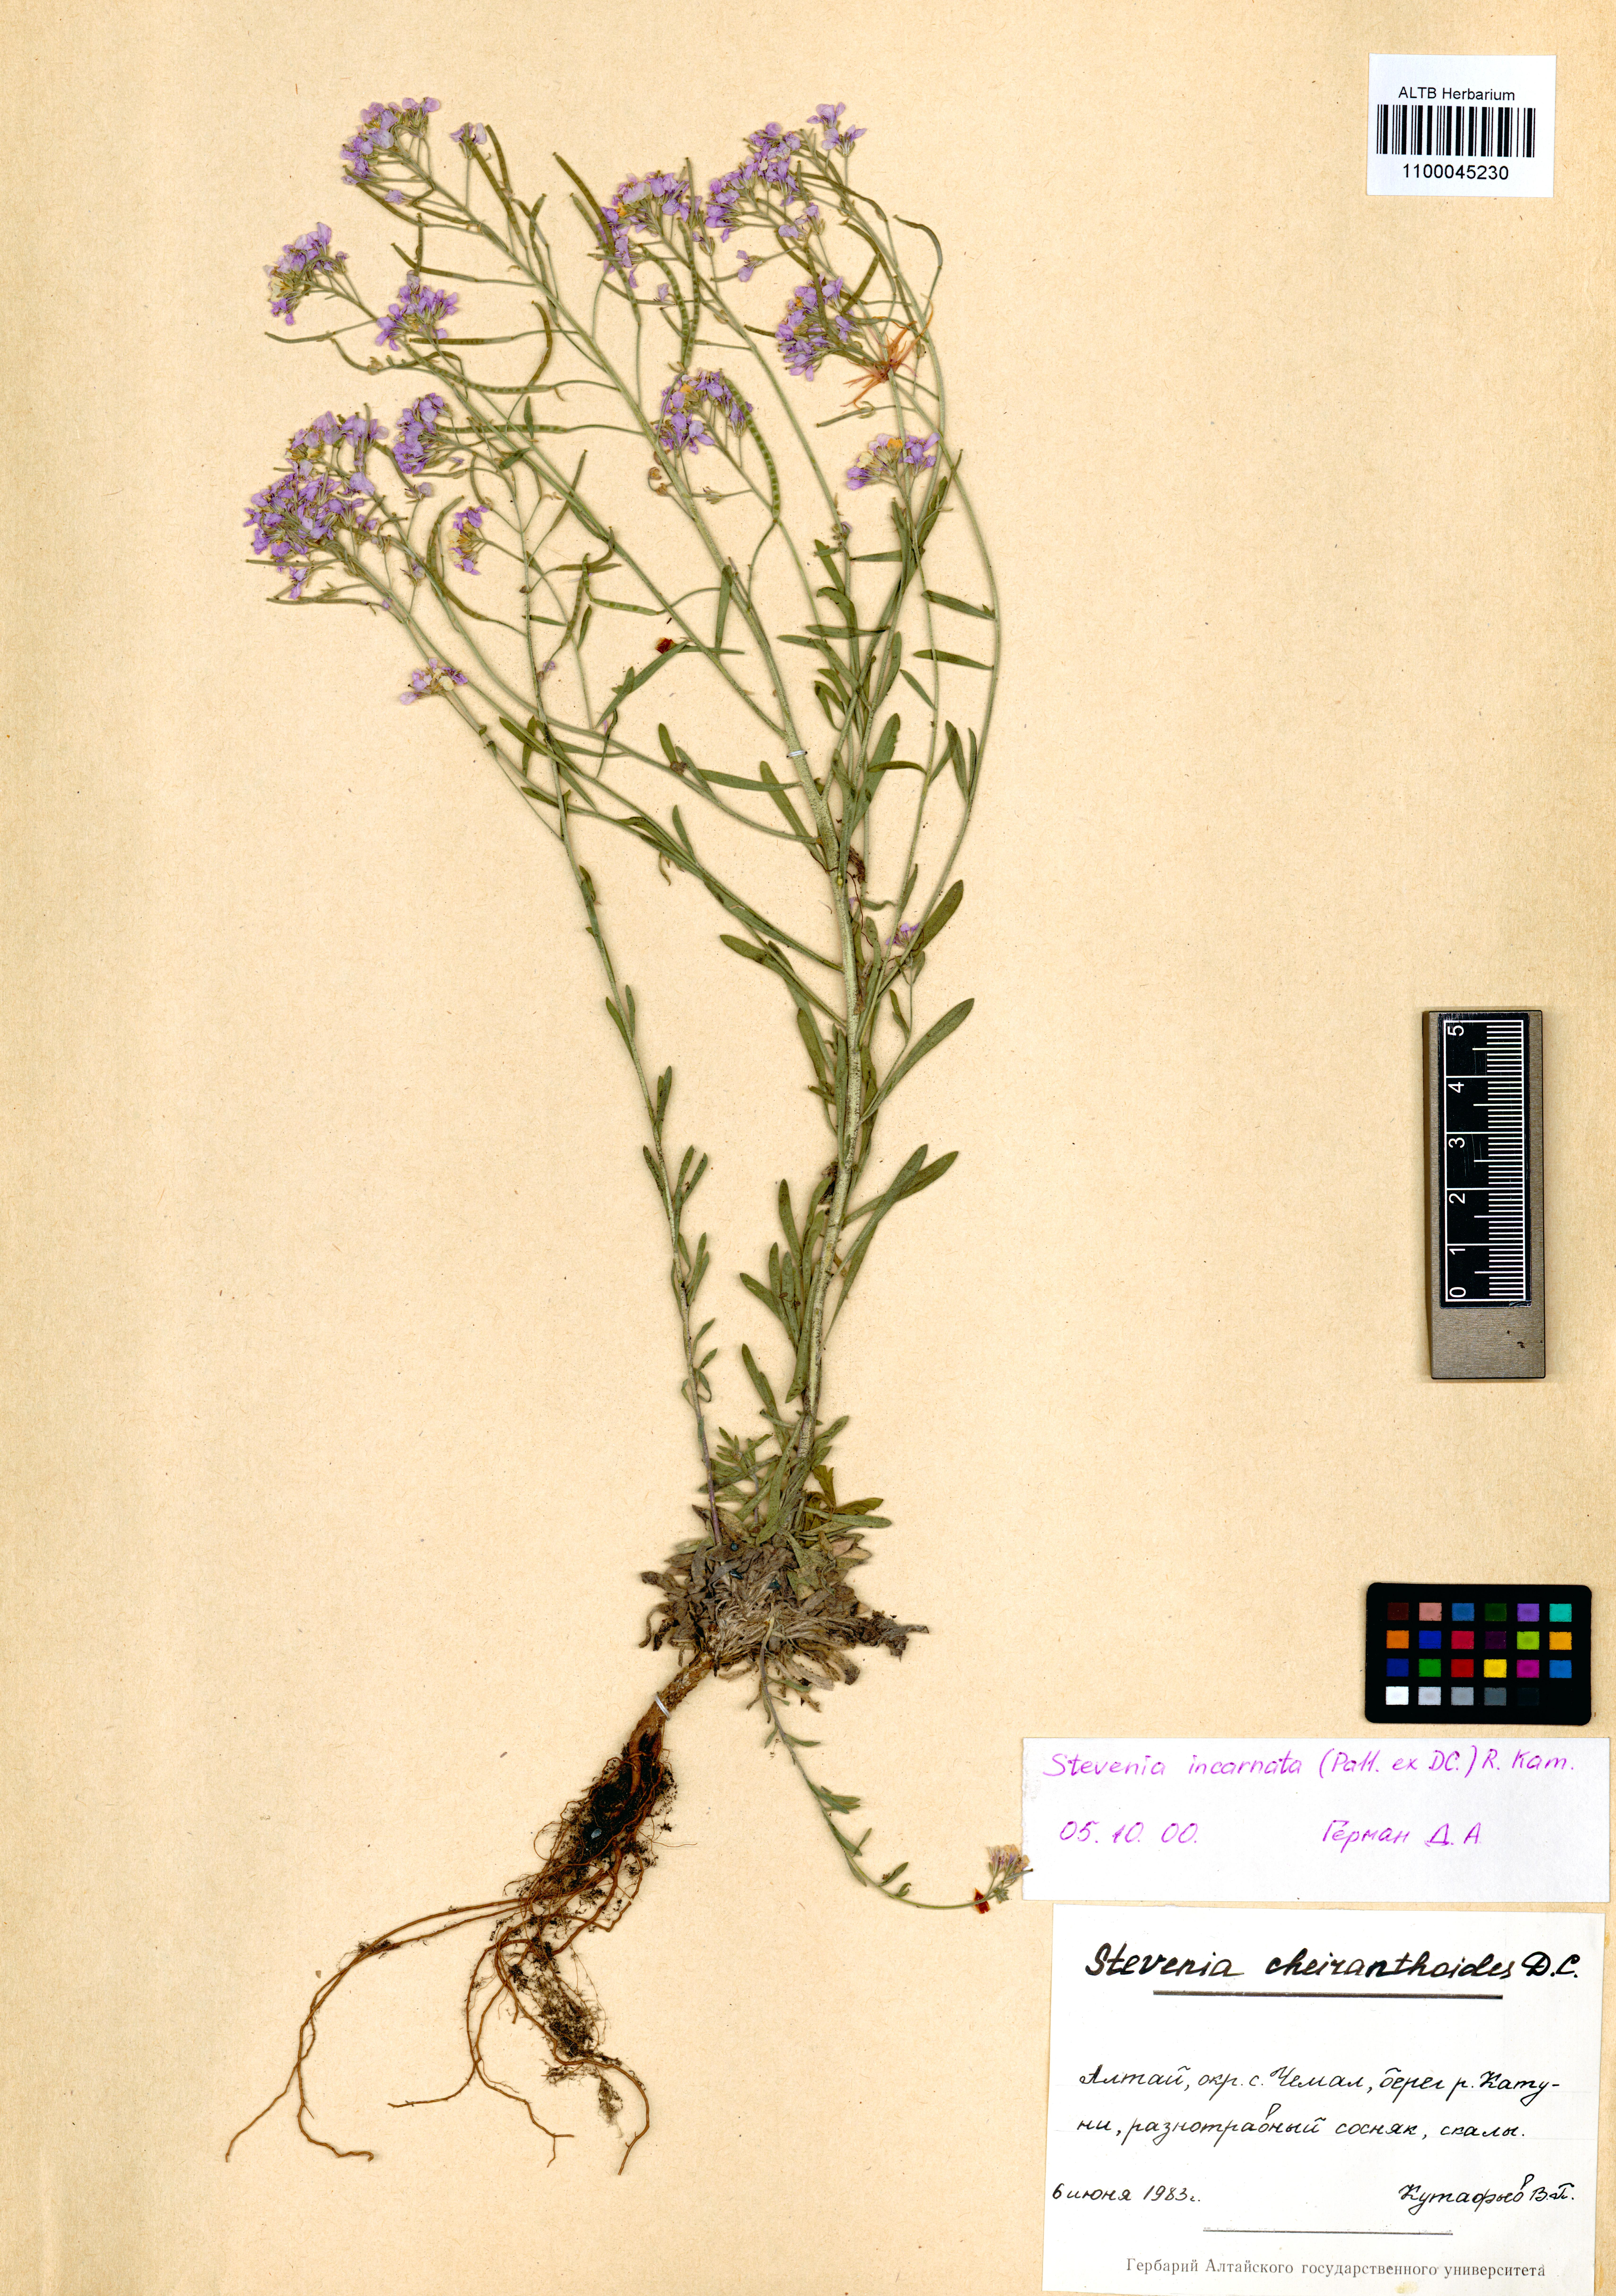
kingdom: Plantae
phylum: Tracheophyta
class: Magnoliopsida
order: Brassicales
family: Brassicaceae
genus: Stevenia
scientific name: Stevenia incarnata
